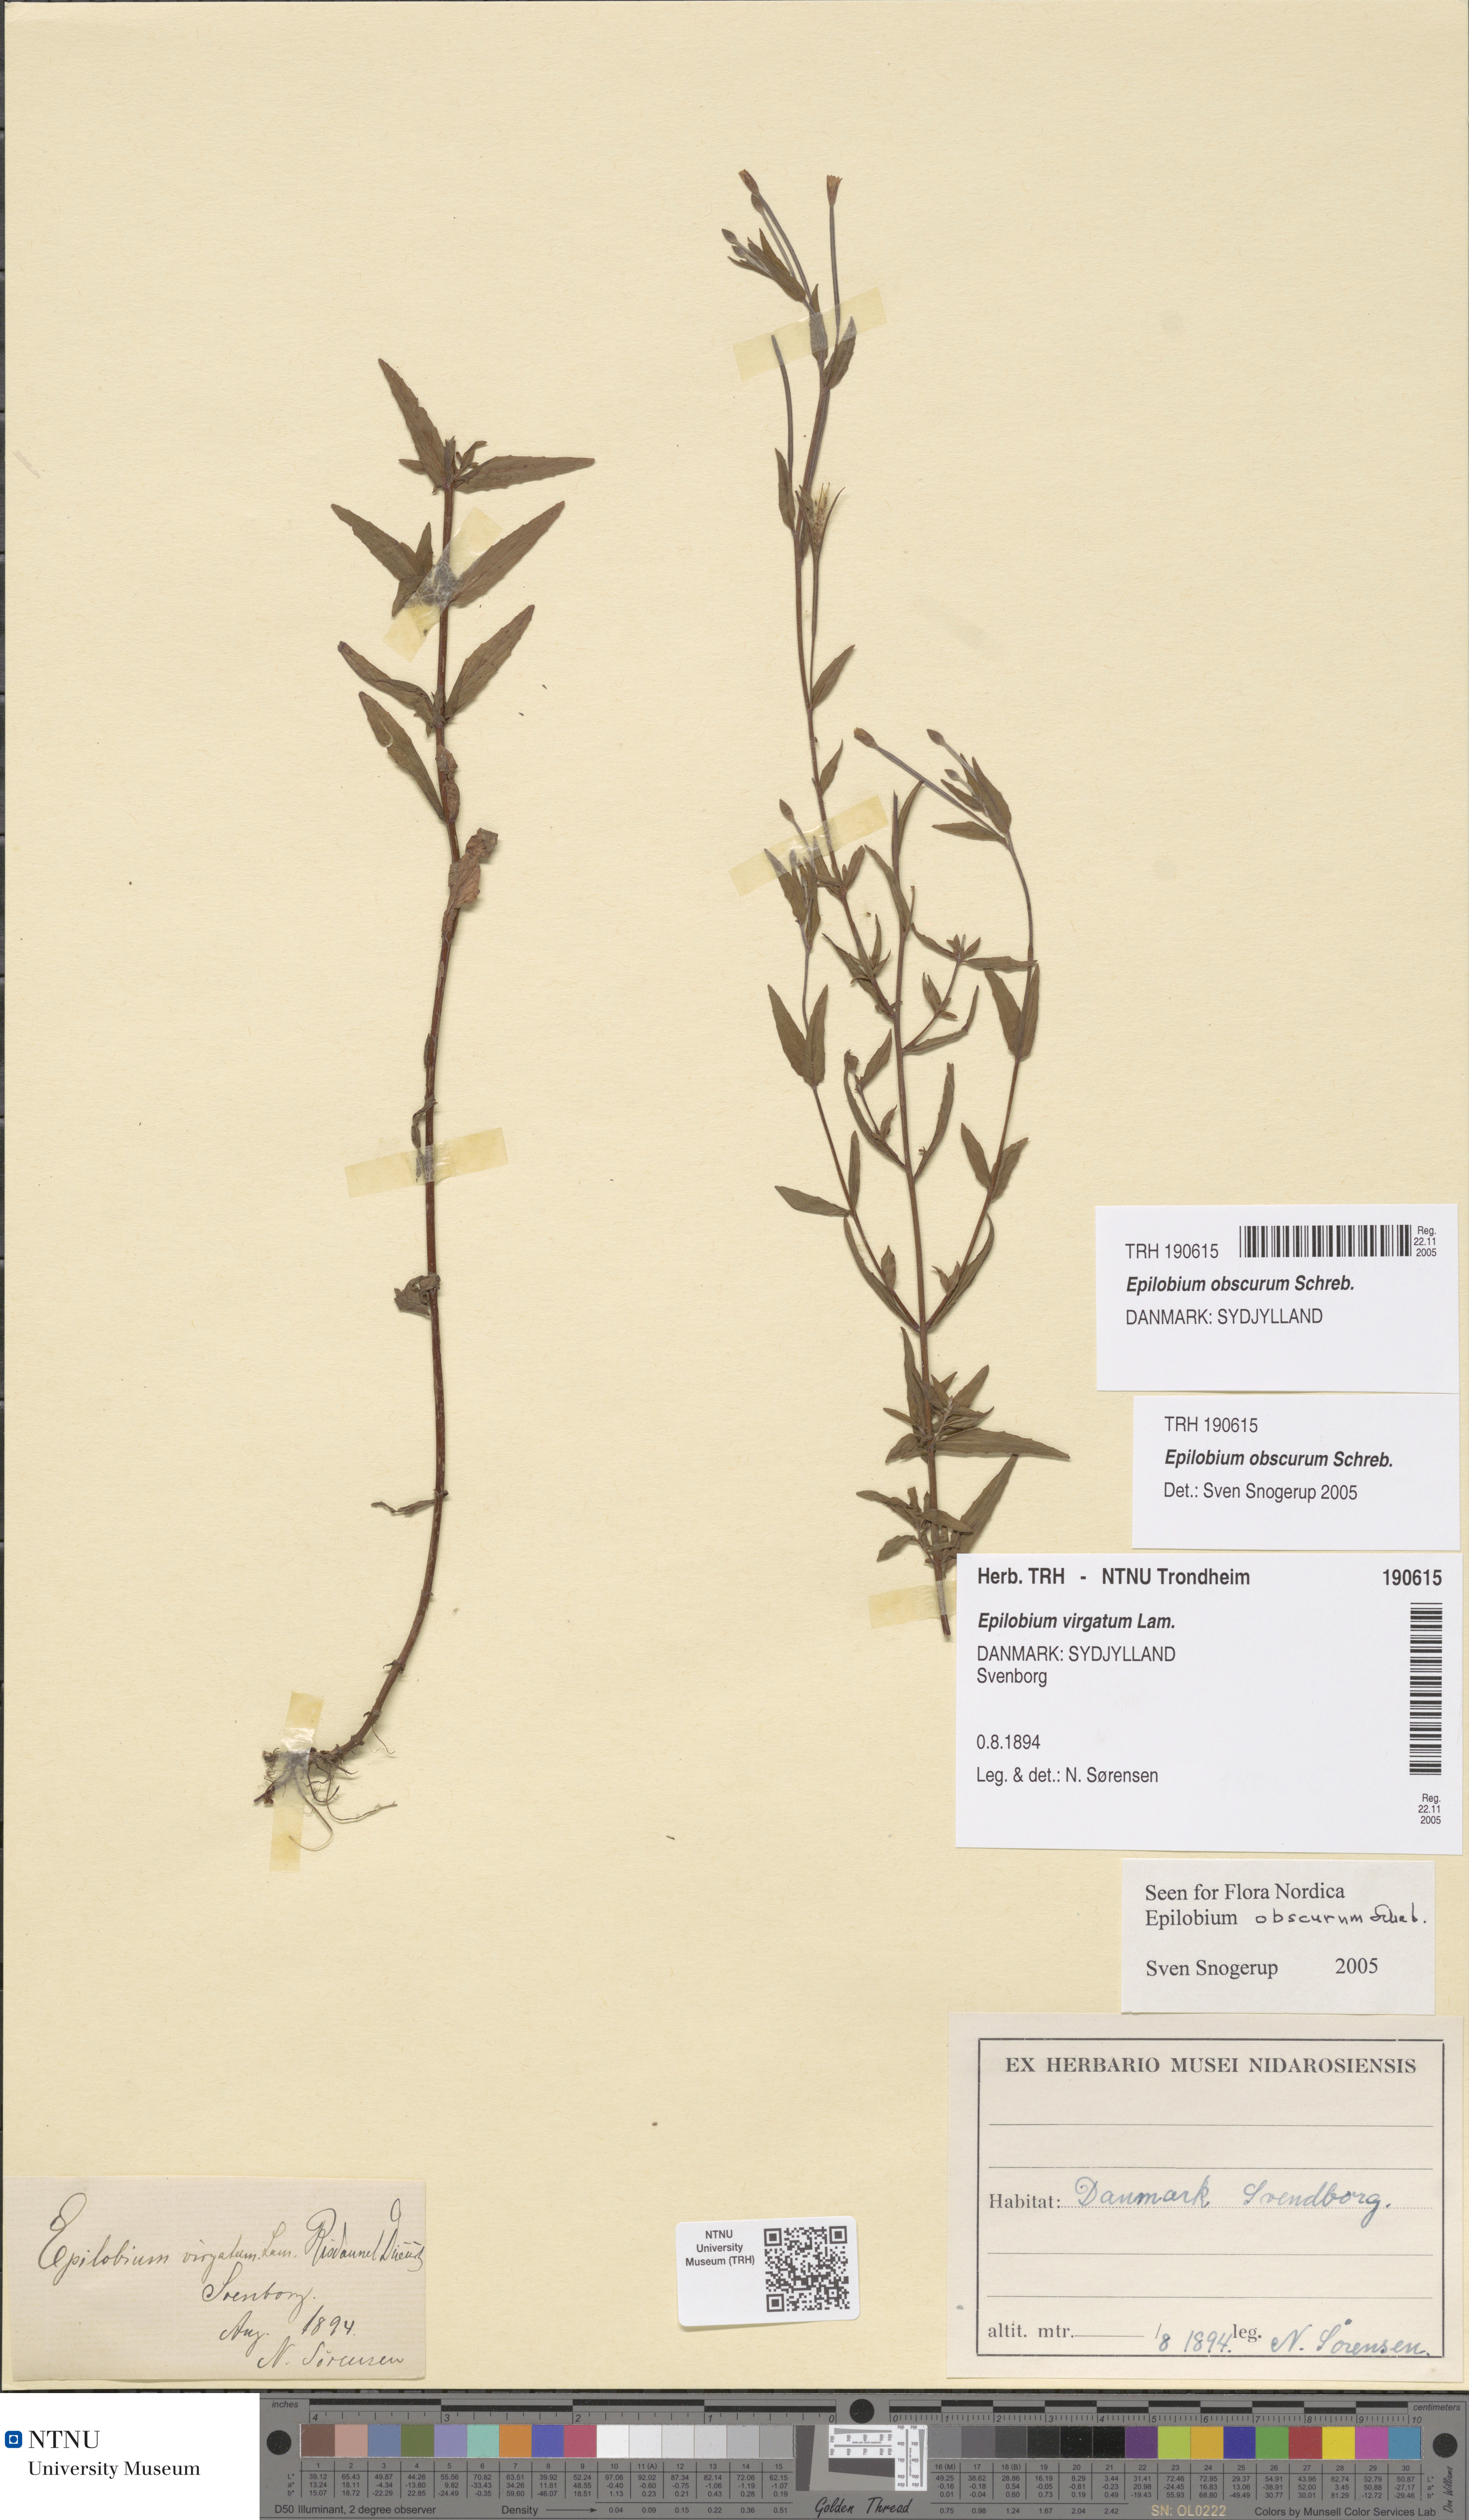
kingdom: Plantae
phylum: Tracheophyta
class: Magnoliopsida
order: Myrtales
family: Onagraceae
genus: Epilobium
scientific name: Epilobium obscurum
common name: Short-fruited willowherb
